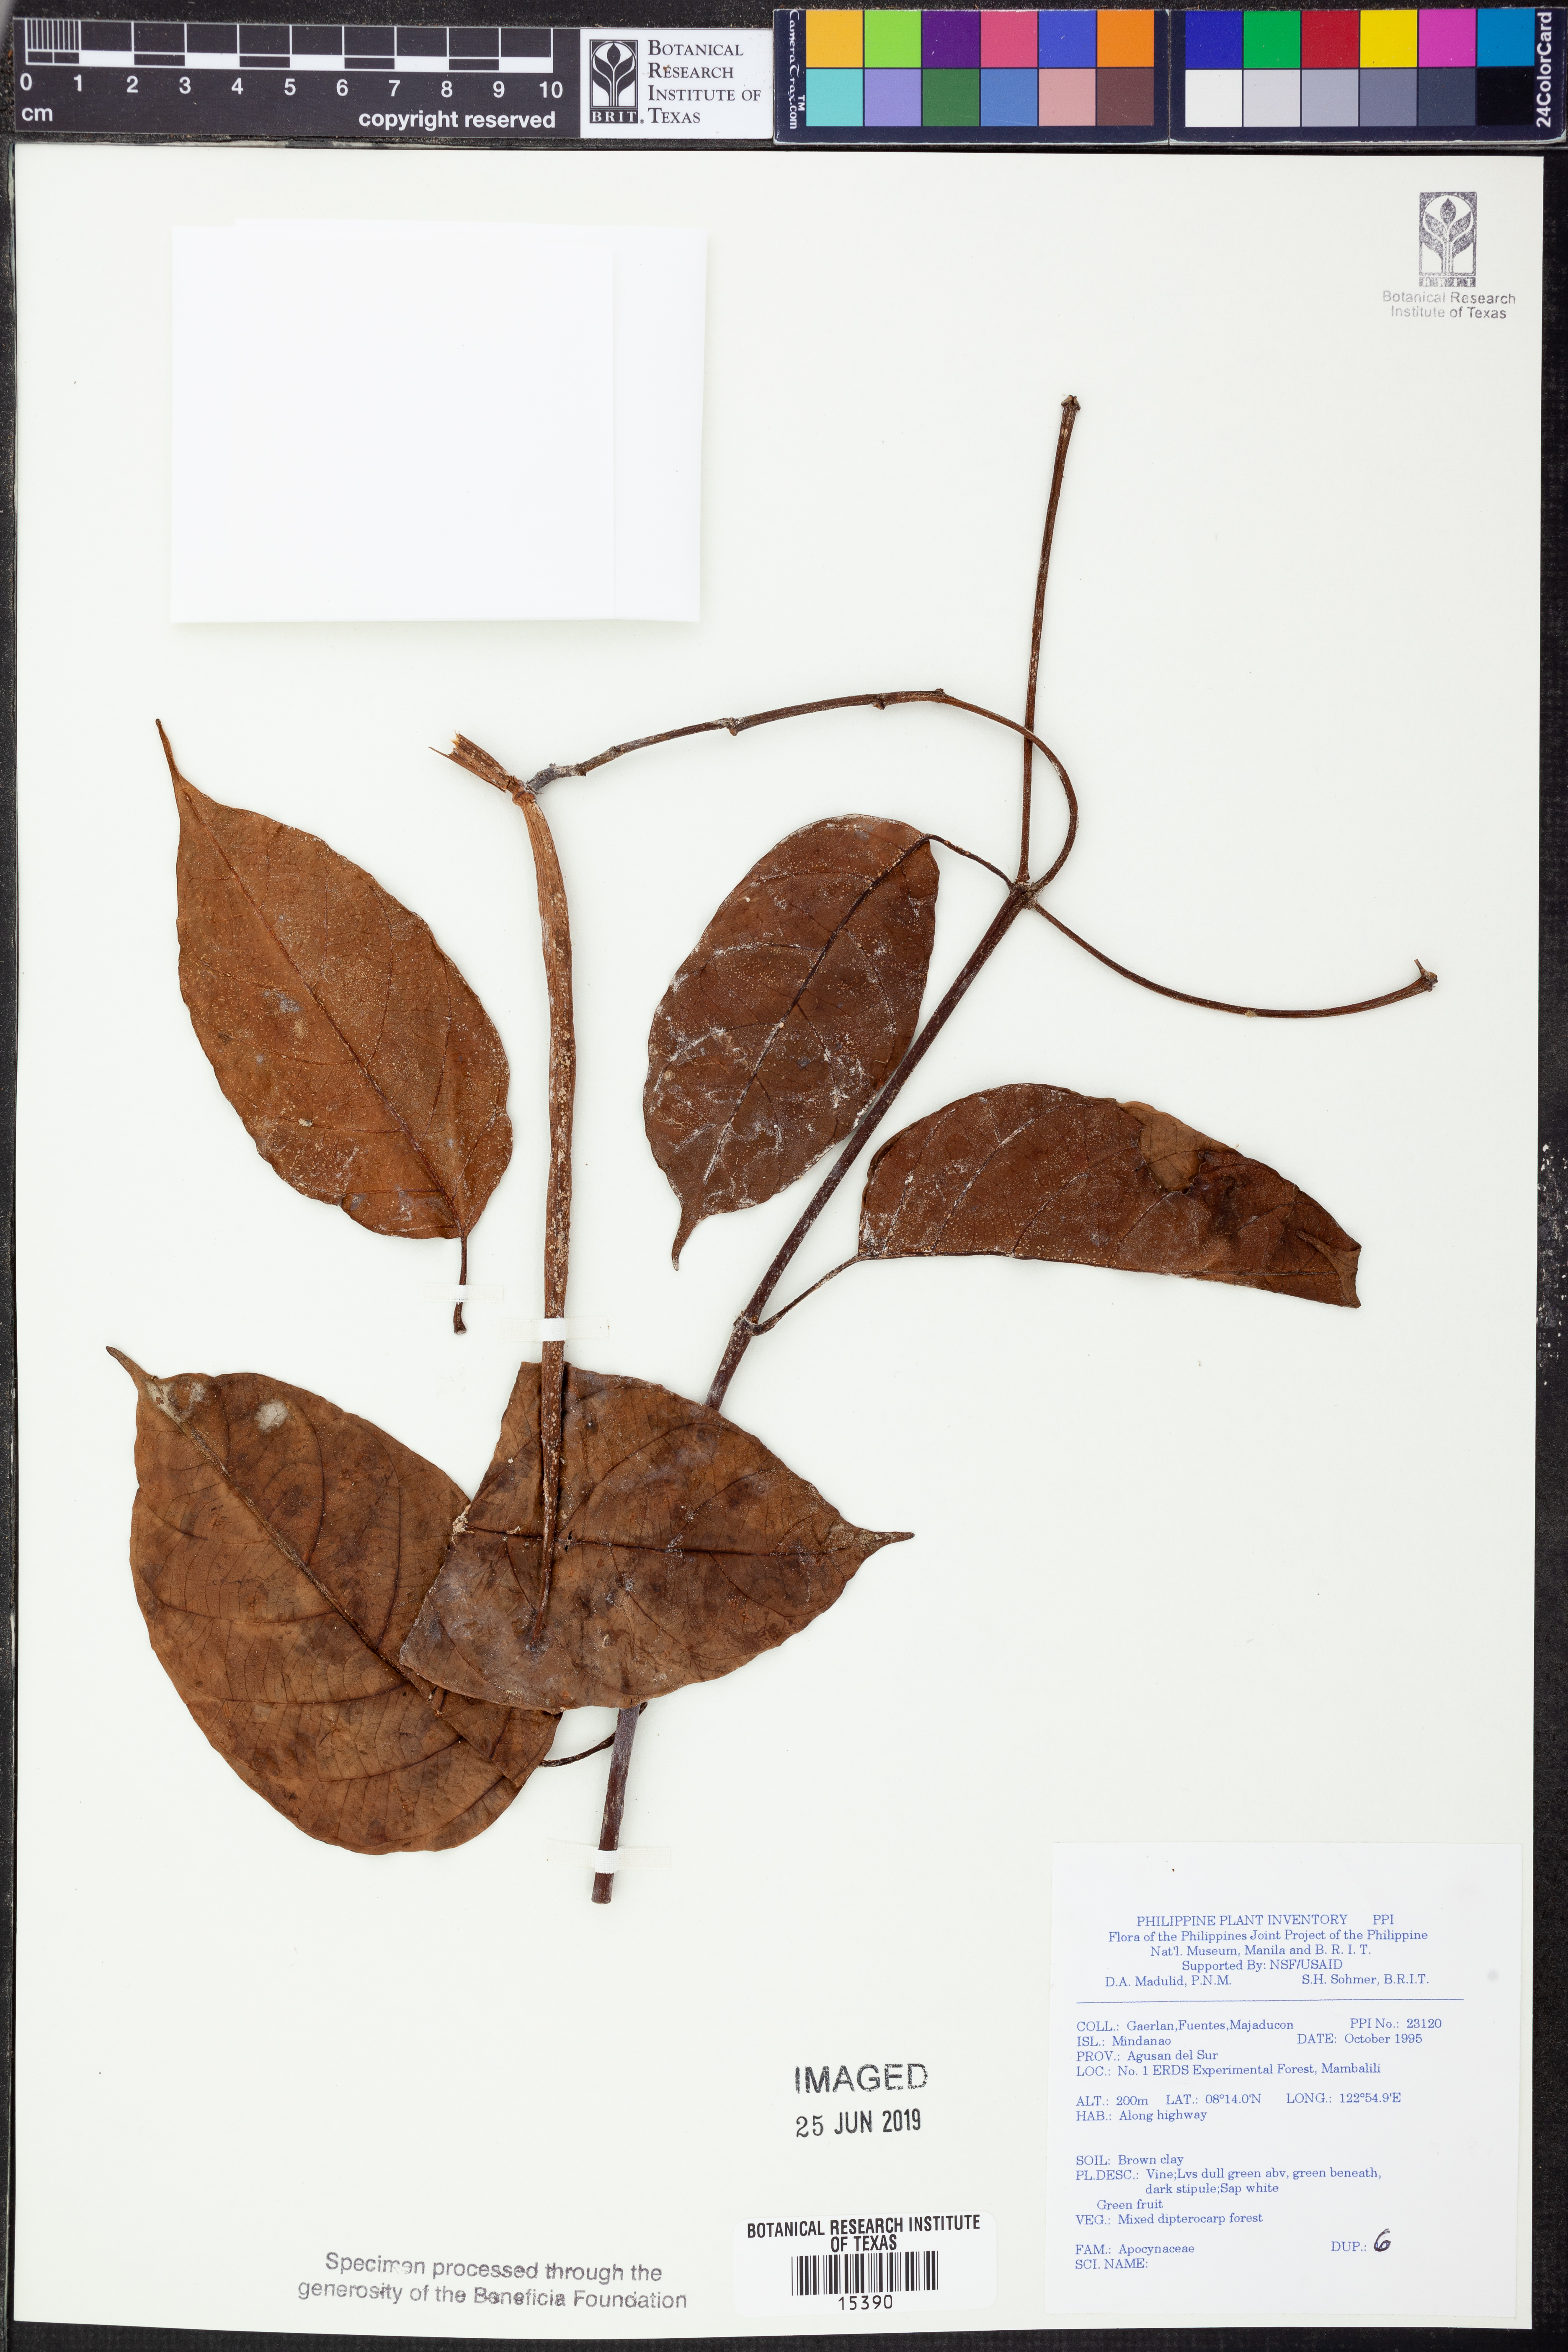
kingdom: Plantae
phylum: Tracheophyta
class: Magnoliopsida
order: Gentianales
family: Apocynaceae
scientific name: Apocynaceae
